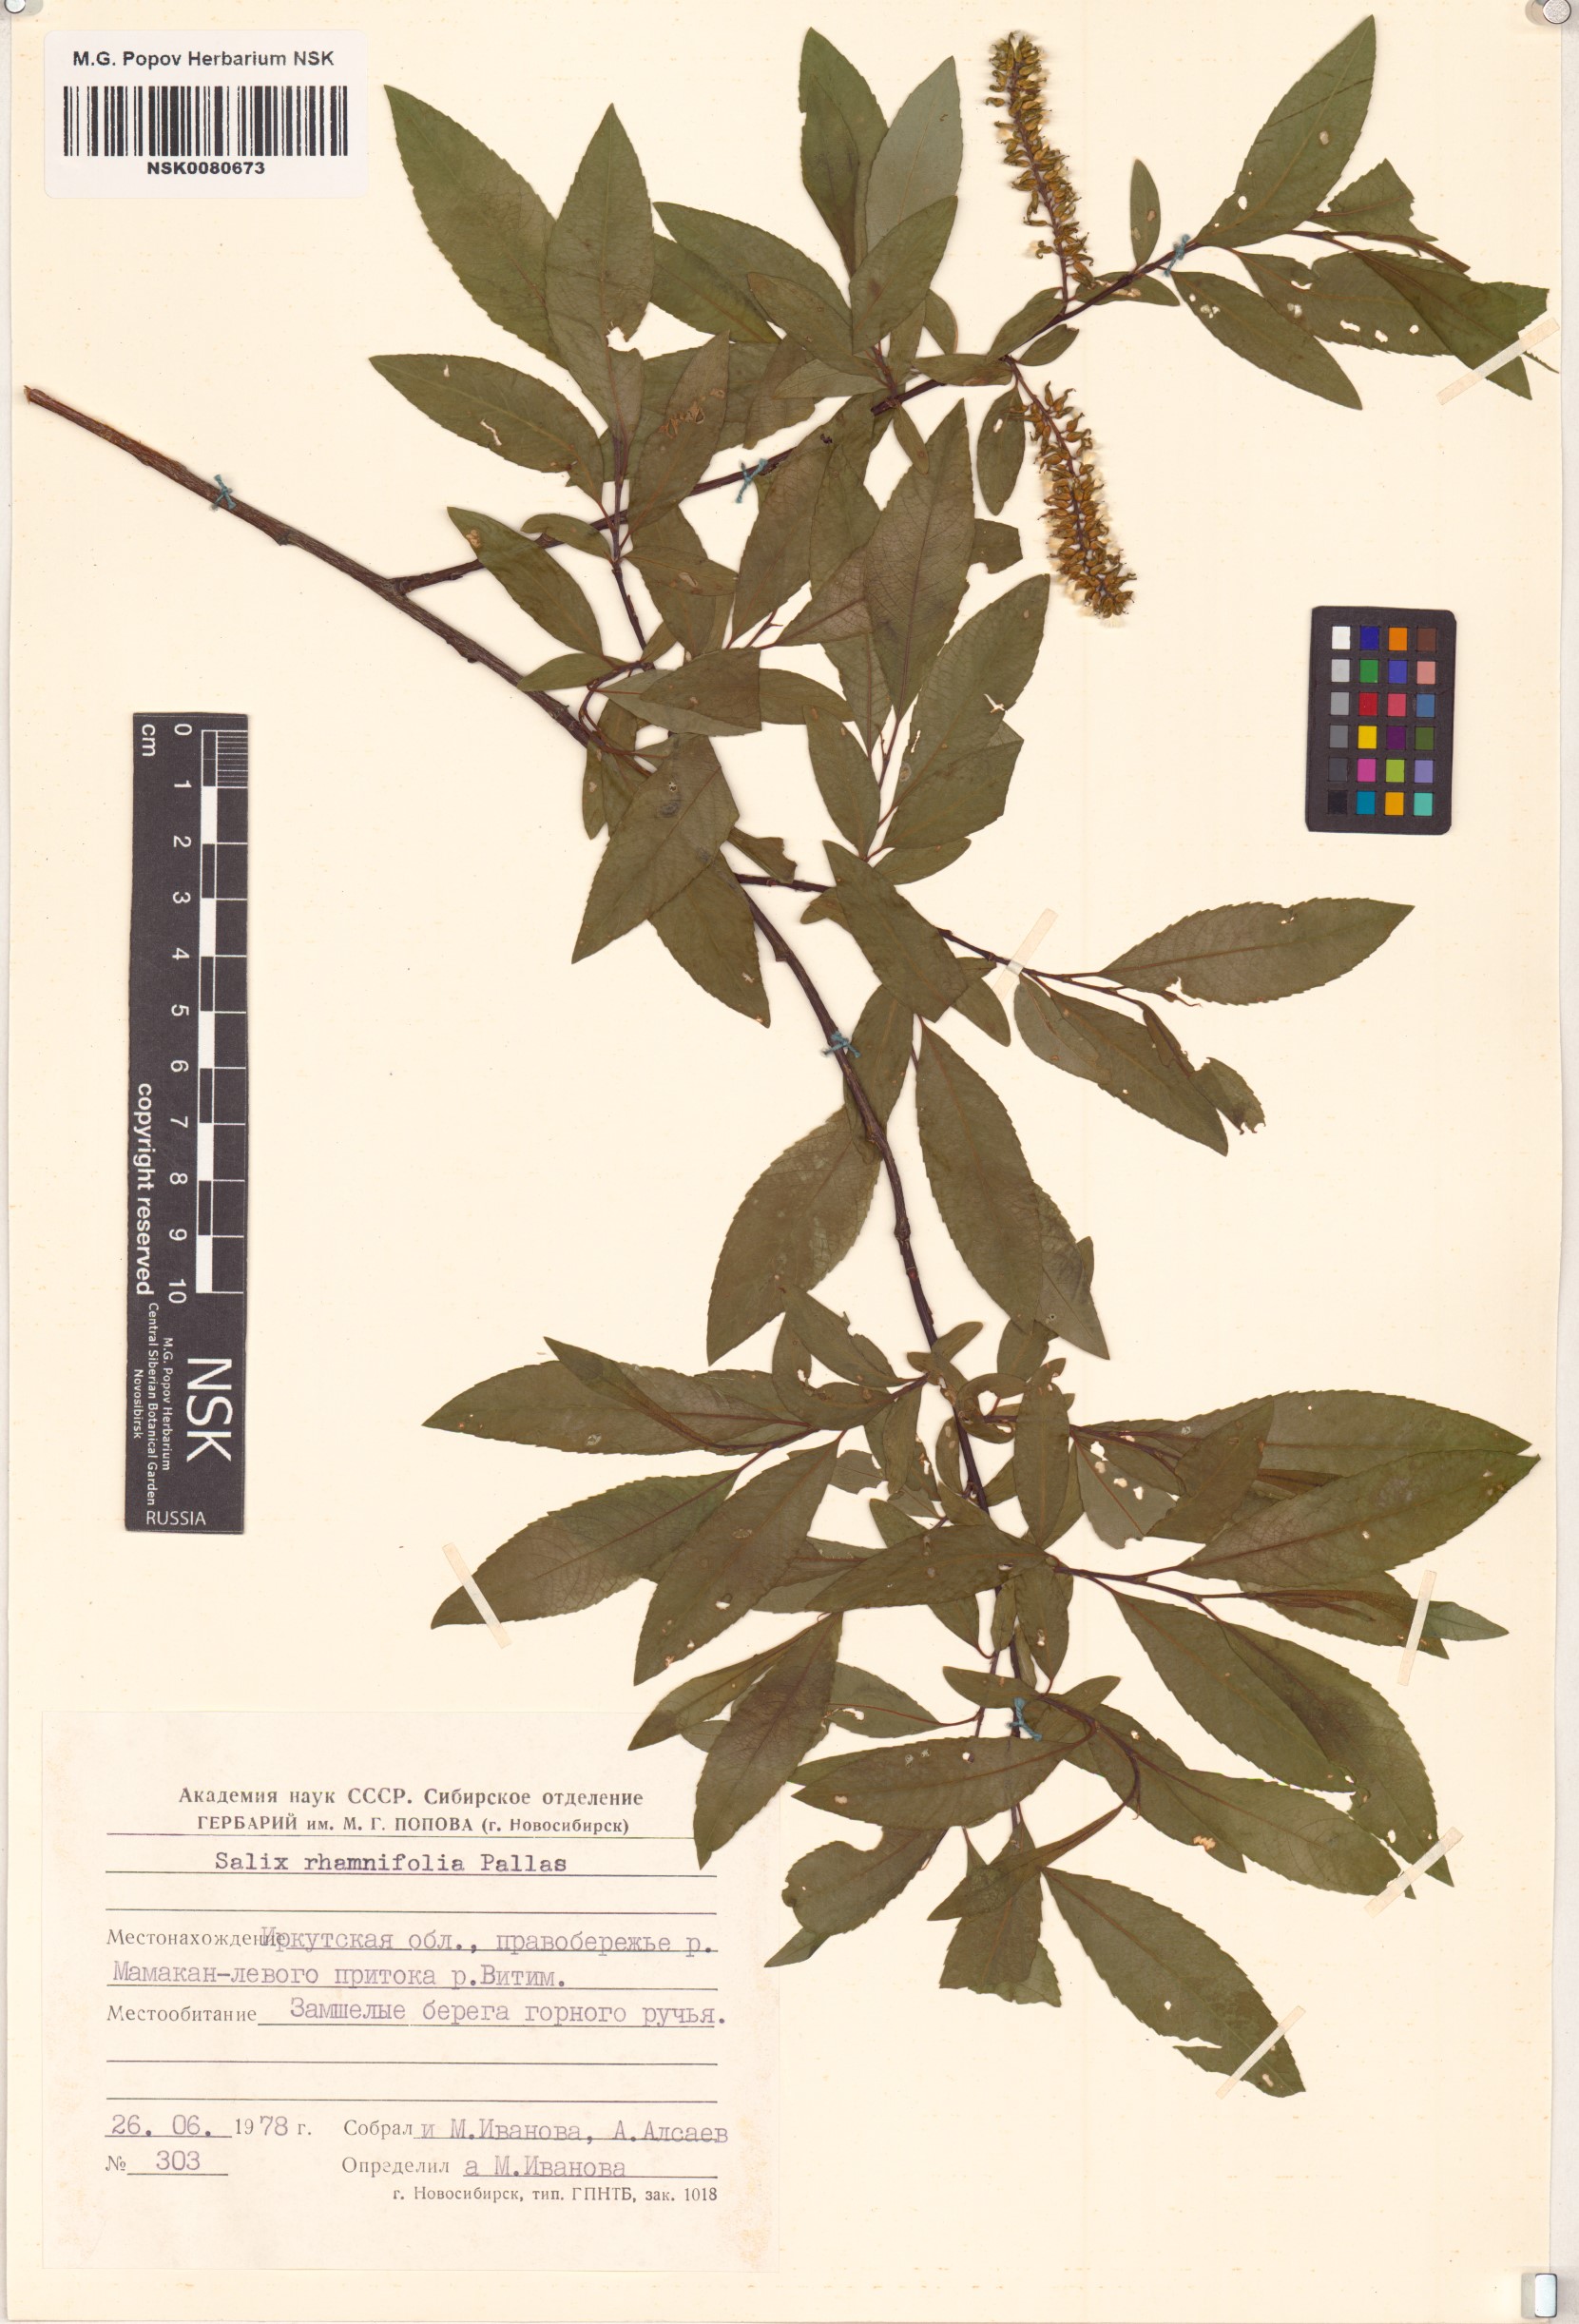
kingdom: Plantae
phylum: Tracheophyta
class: Magnoliopsida
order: Malpighiales
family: Salicaceae
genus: Salix
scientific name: Salix rhamnifolia
